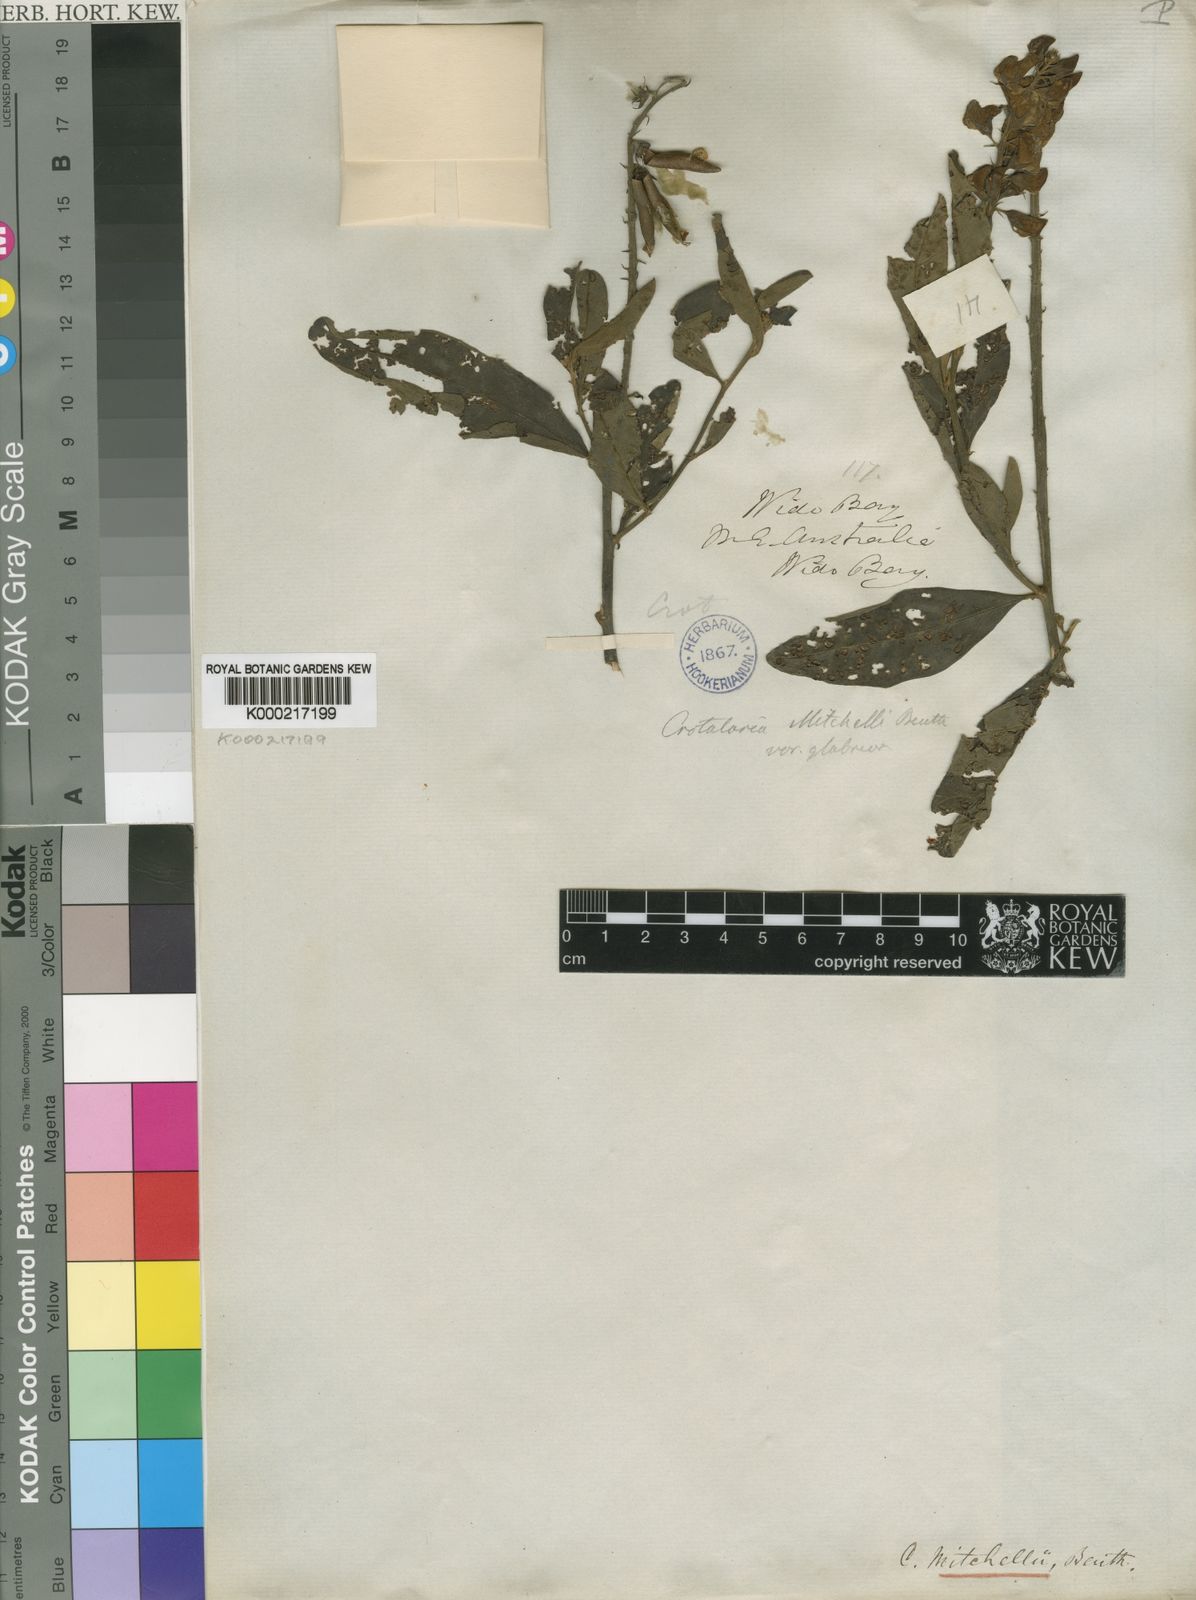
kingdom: Plantae
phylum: Tracheophyta
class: Magnoliopsida
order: Fabales
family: Fabaceae
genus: Crotalaria
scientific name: Crotalaria mitchellii
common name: Yellow rattlepod
